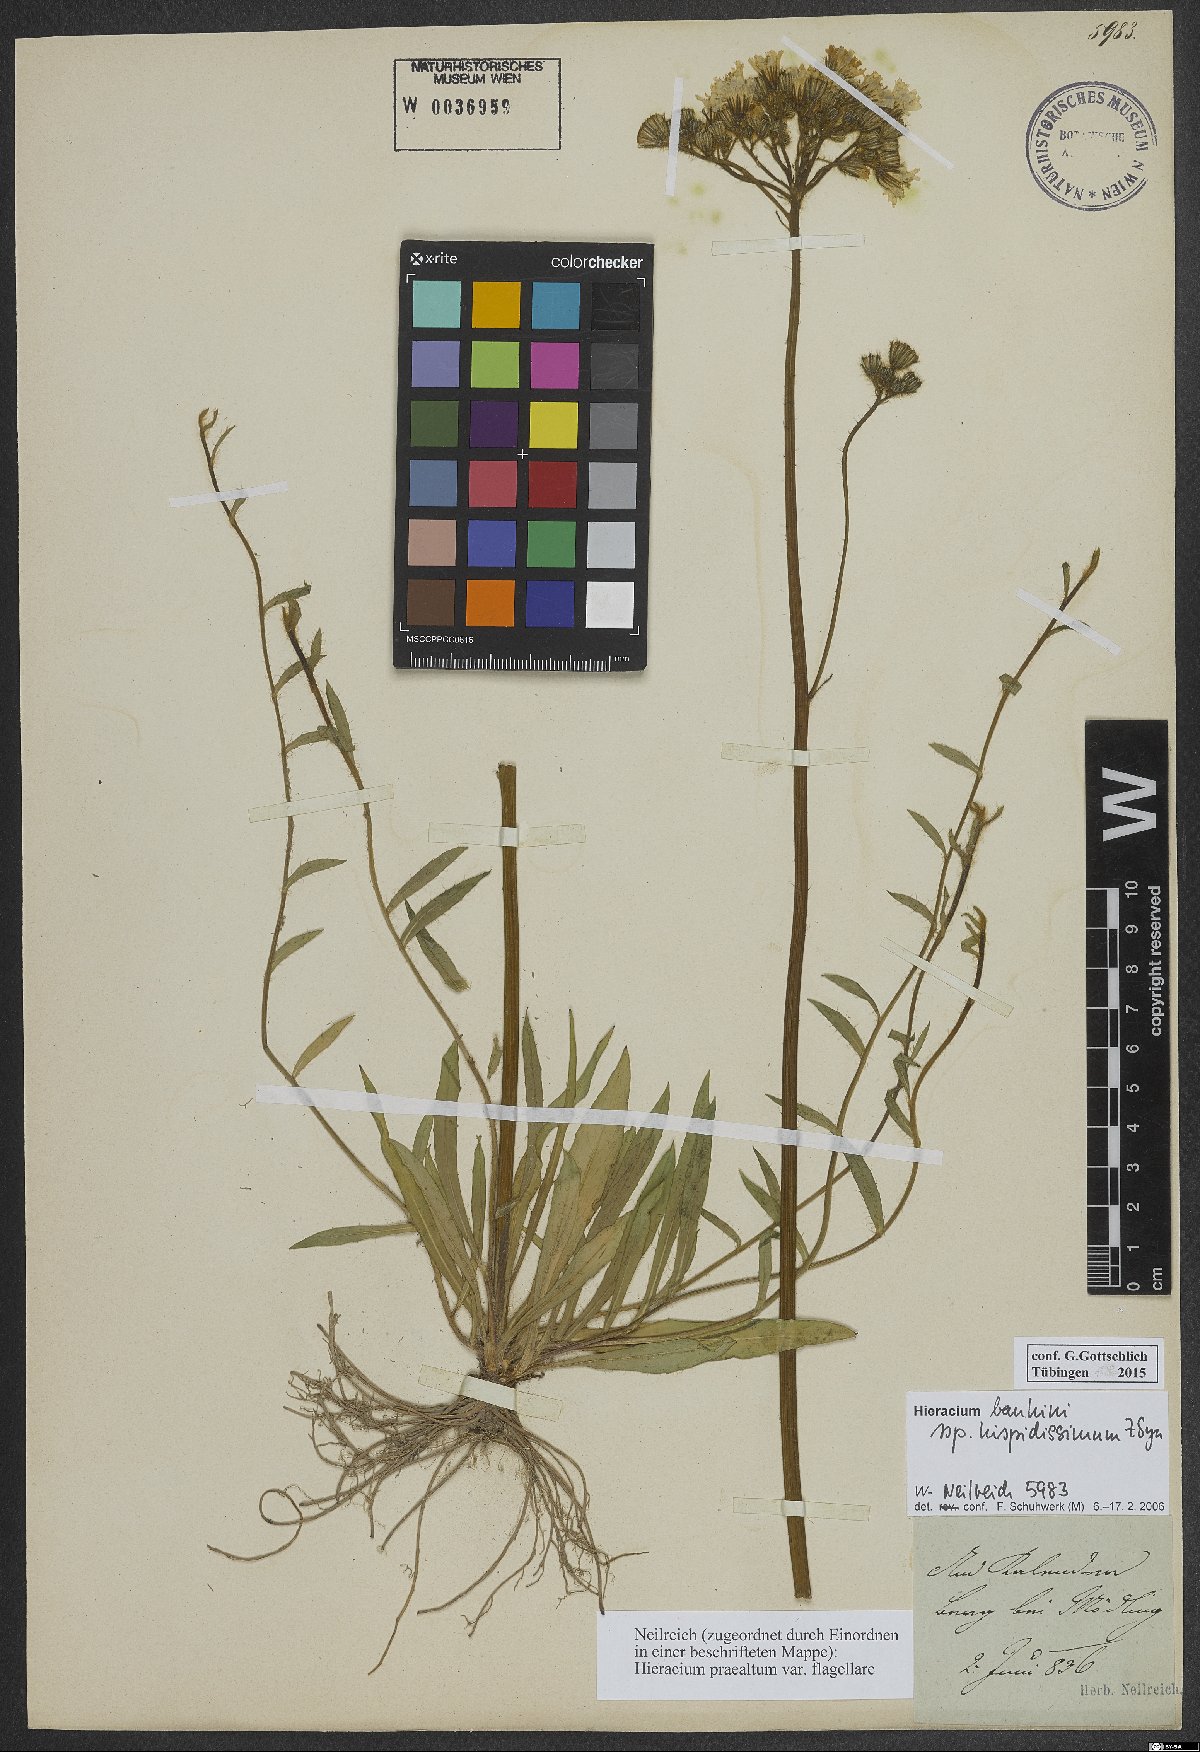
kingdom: Plantae
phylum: Tracheophyta
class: Magnoliopsida
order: Asterales
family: Asteraceae
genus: Pilosella
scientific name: Pilosella bauhini
